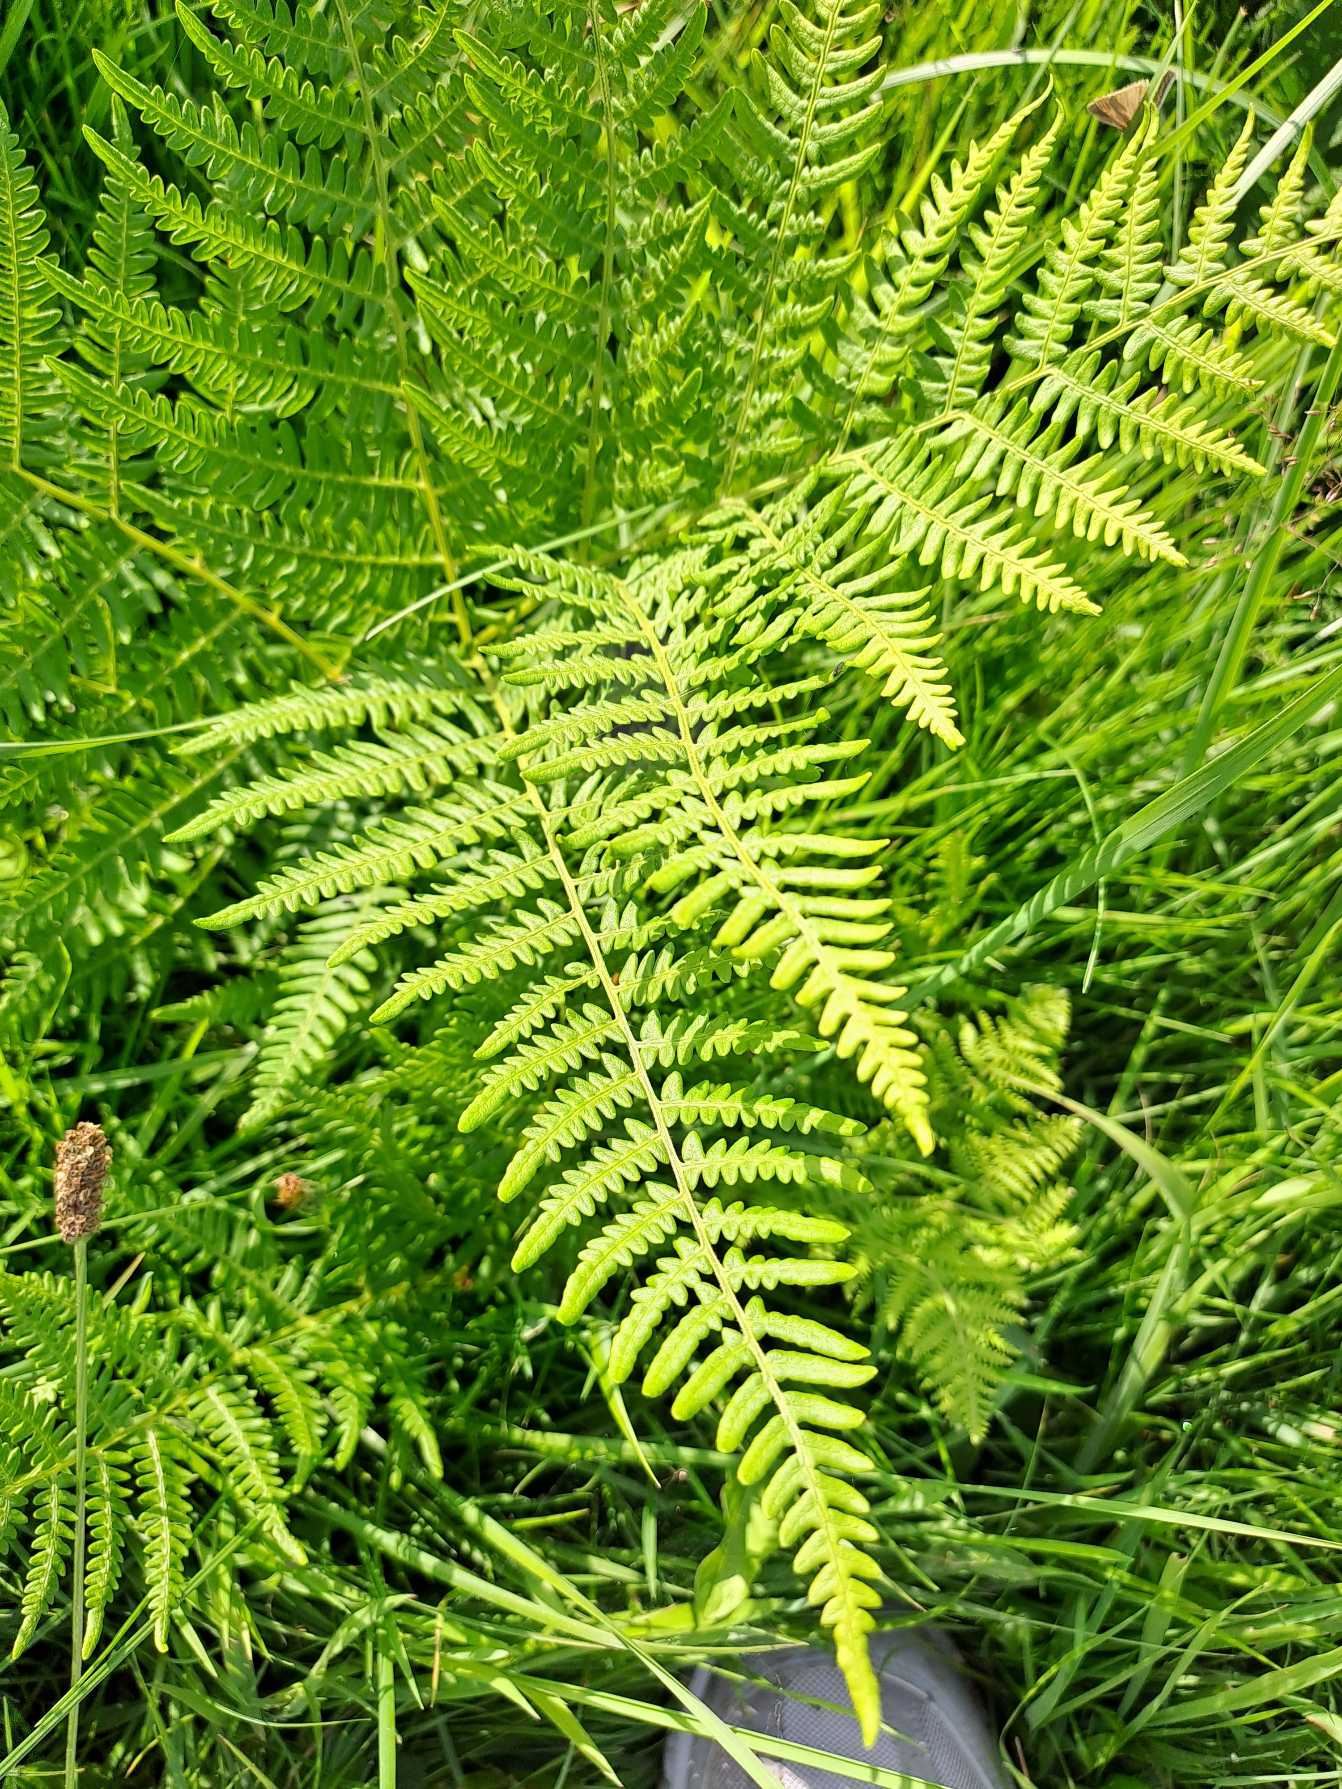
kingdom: Plantae
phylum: Tracheophyta
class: Polypodiopsida
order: Polypodiales
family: Dennstaedtiaceae
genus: Pteridium
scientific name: Pteridium aquilinum
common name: Ørnebregne
